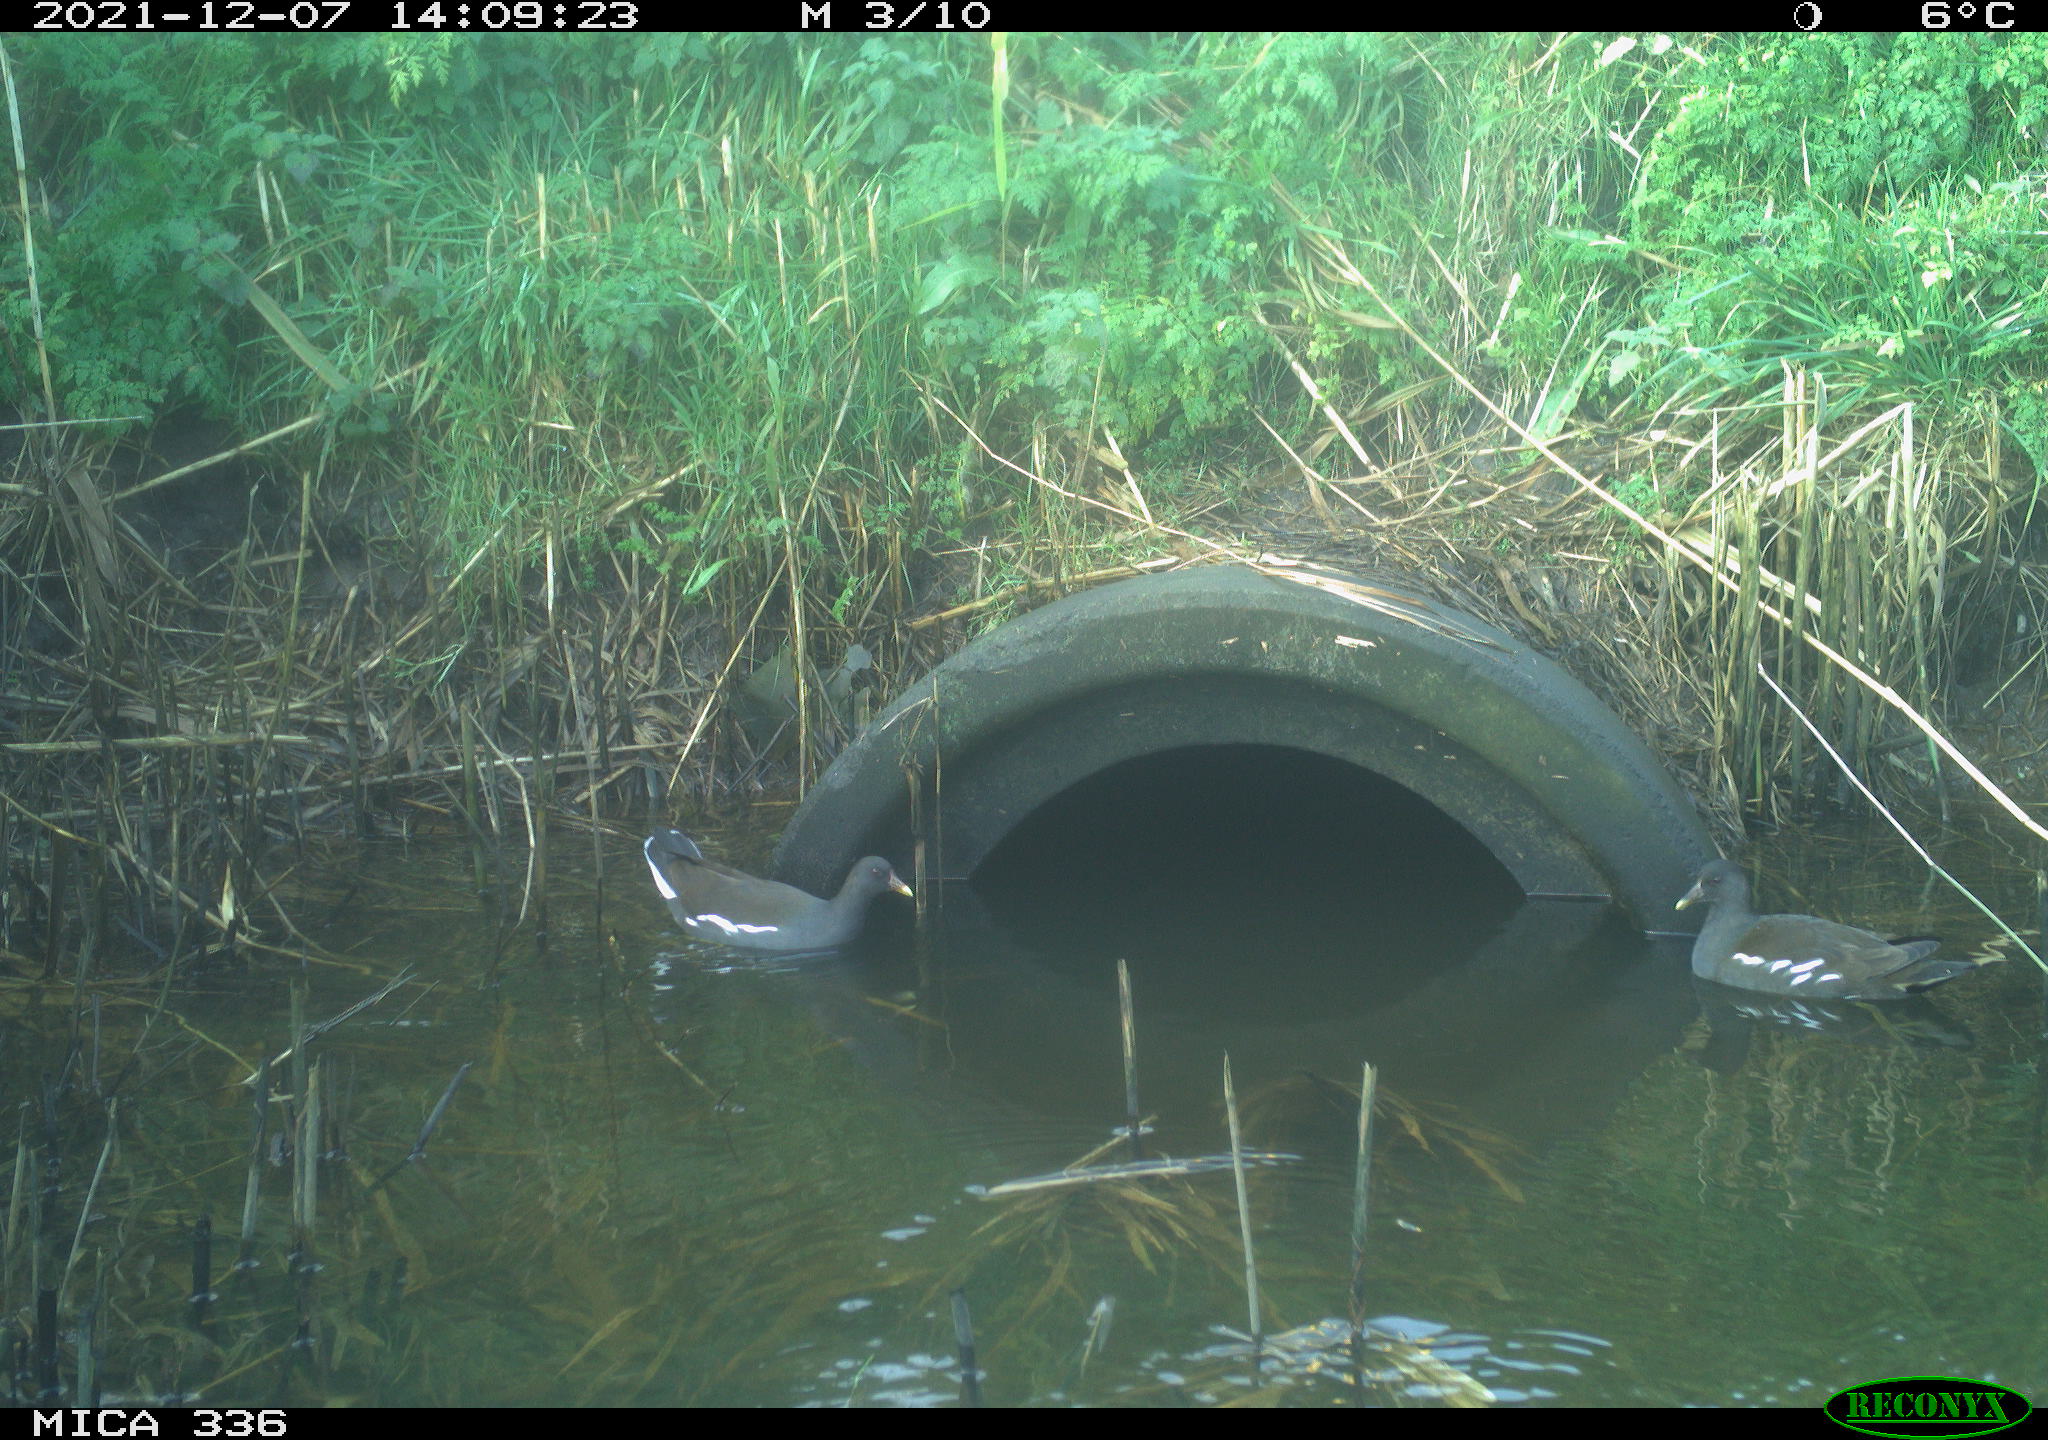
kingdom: Animalia
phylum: Chordata
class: Aves
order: Gruiformes
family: Rallidae
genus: Gallinula
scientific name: Gallinula chloropus
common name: Common moorhen
